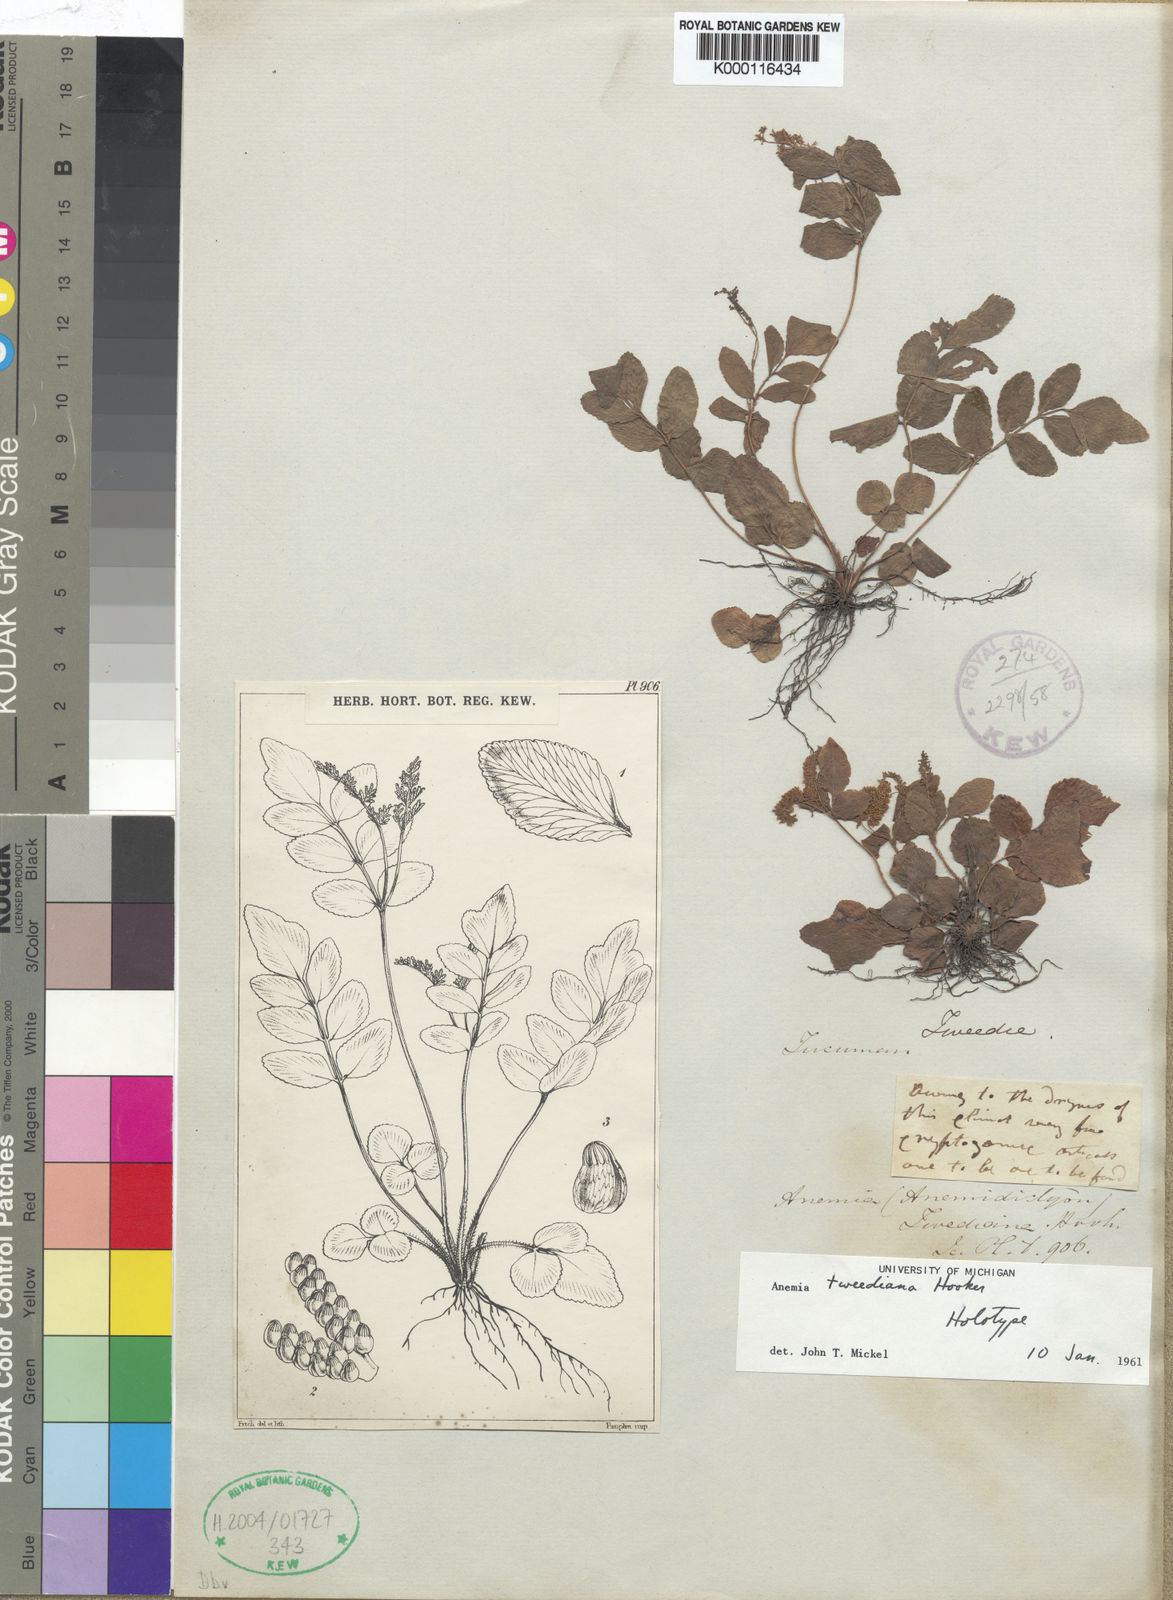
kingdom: Plantae
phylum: Tracheophyta
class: Polypodiopsida
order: Schizaeales
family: Anemiaceae
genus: Anemia
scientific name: Anemia
